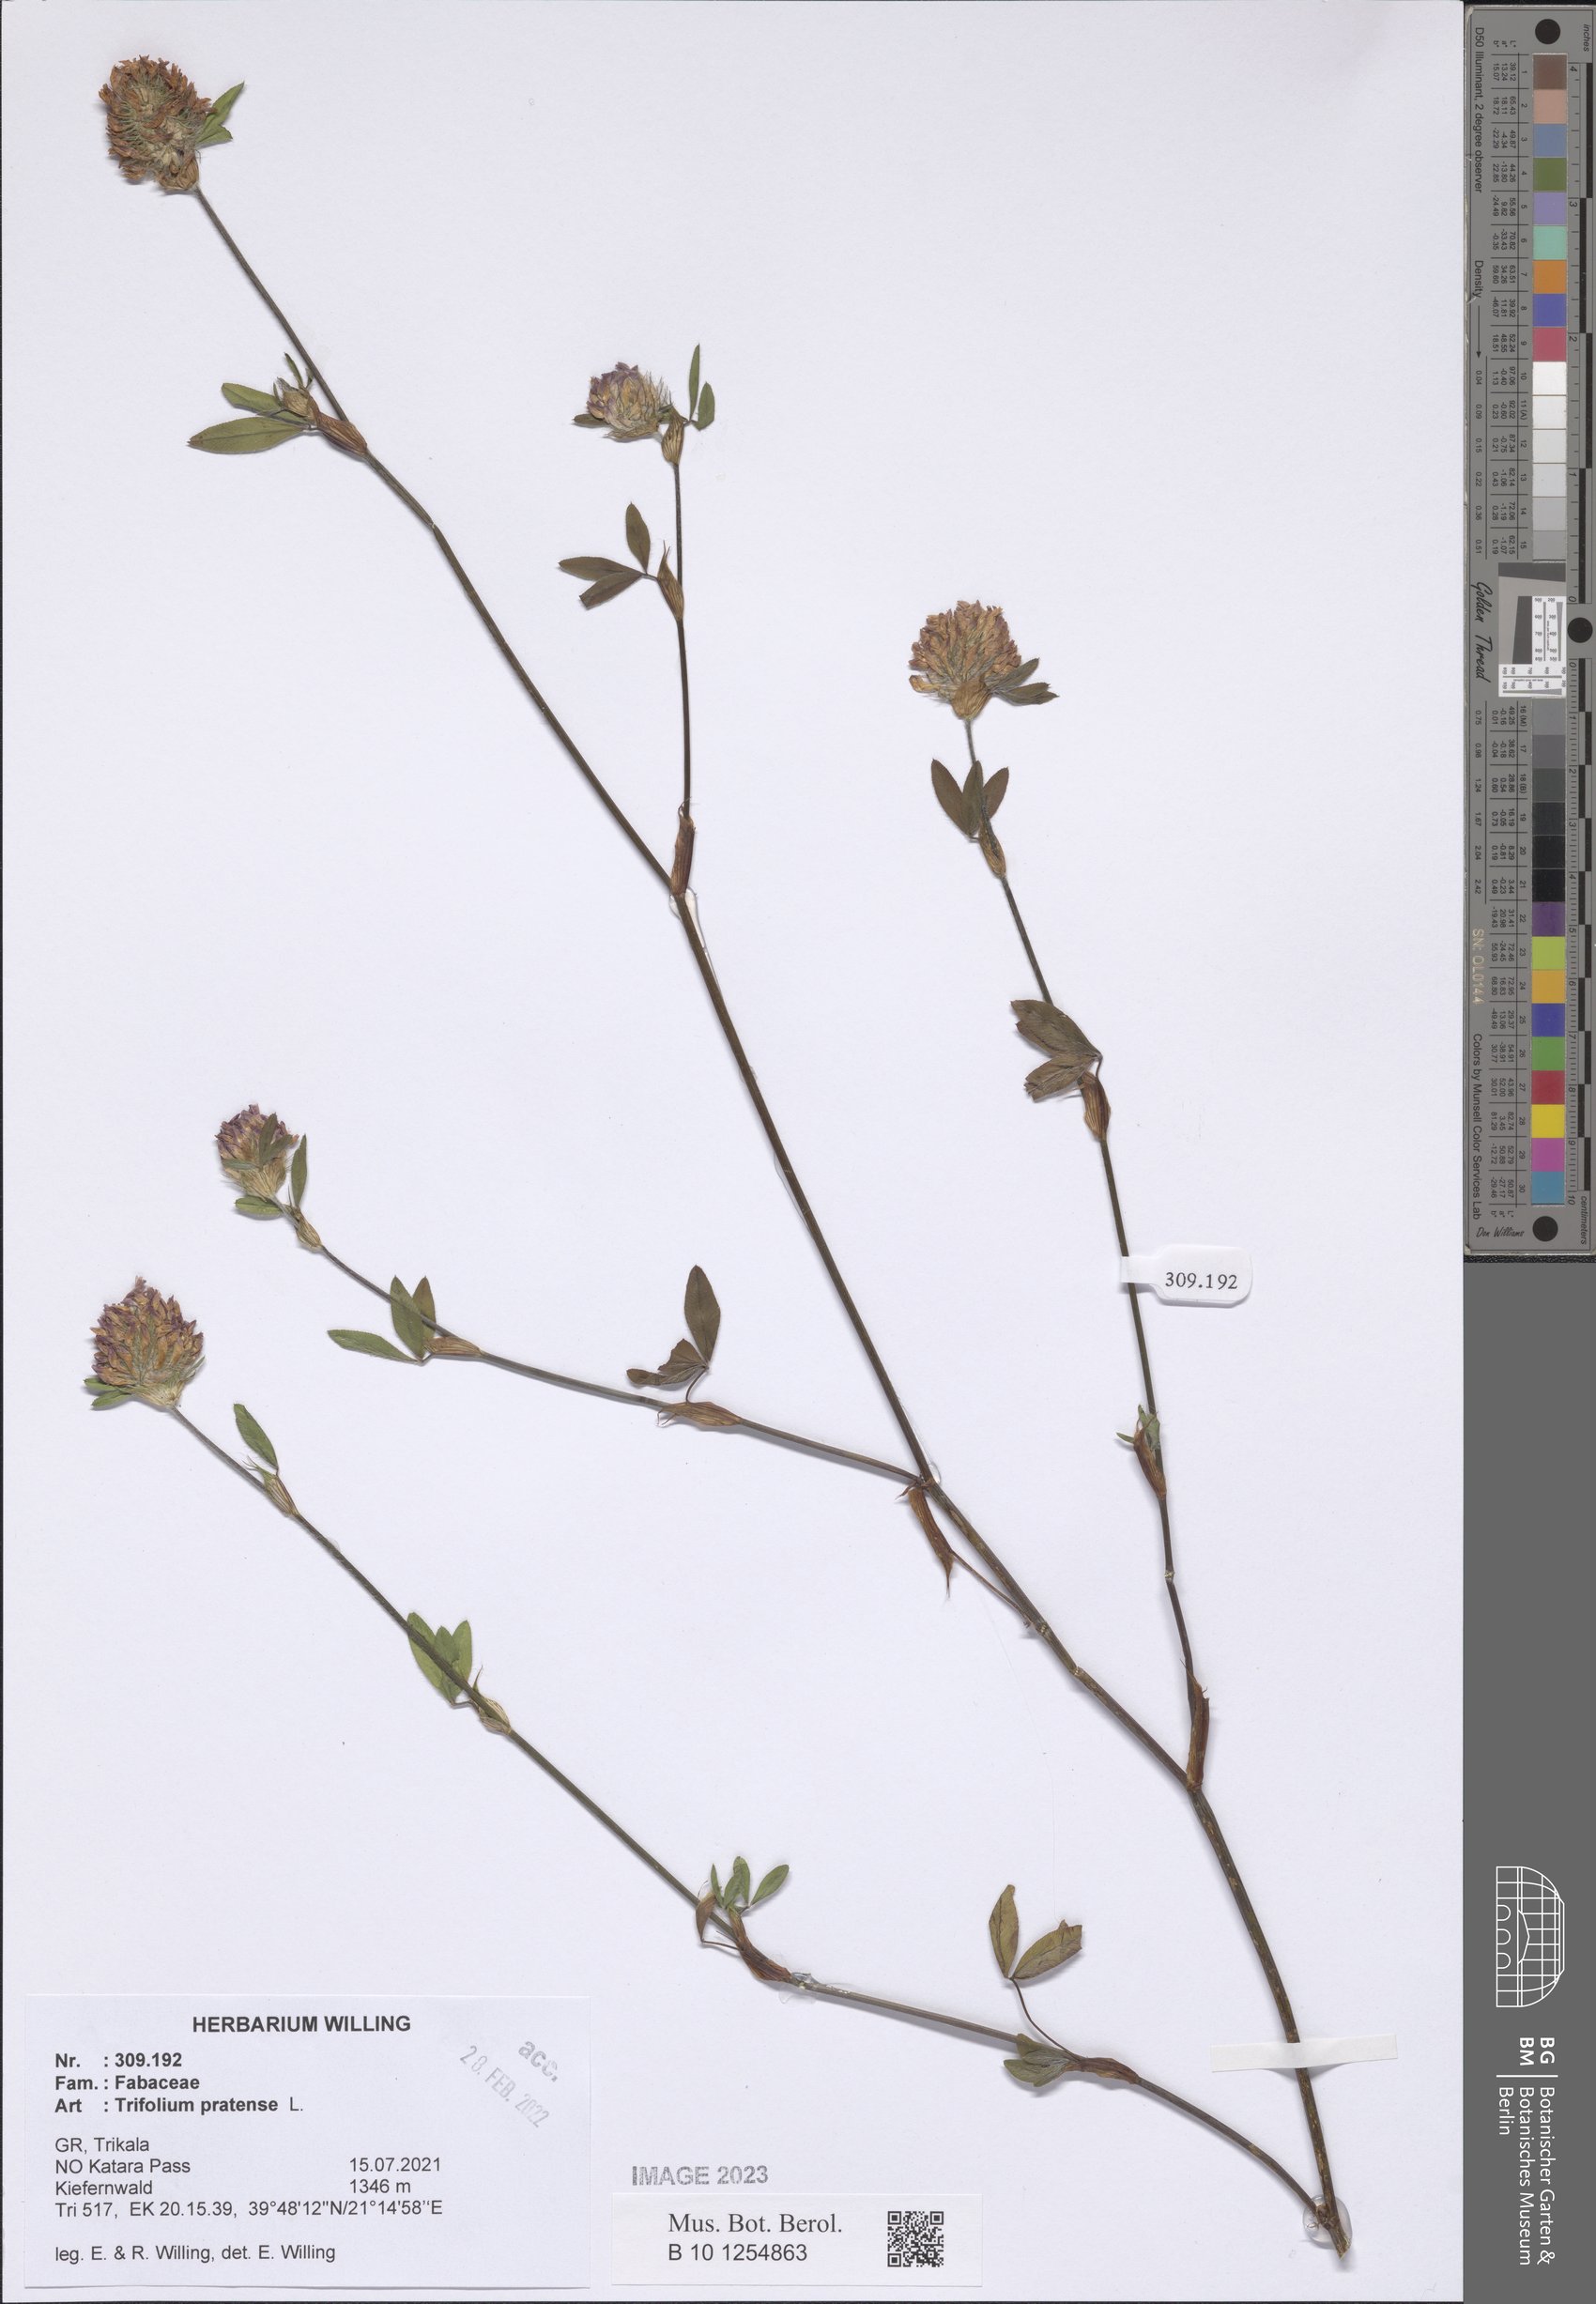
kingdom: Plantae
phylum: Tracheophyta
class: Magnoliopsida
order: Fabales
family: Fabaceae
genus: Trifolium
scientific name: Trifolium pratense
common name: Red clover
